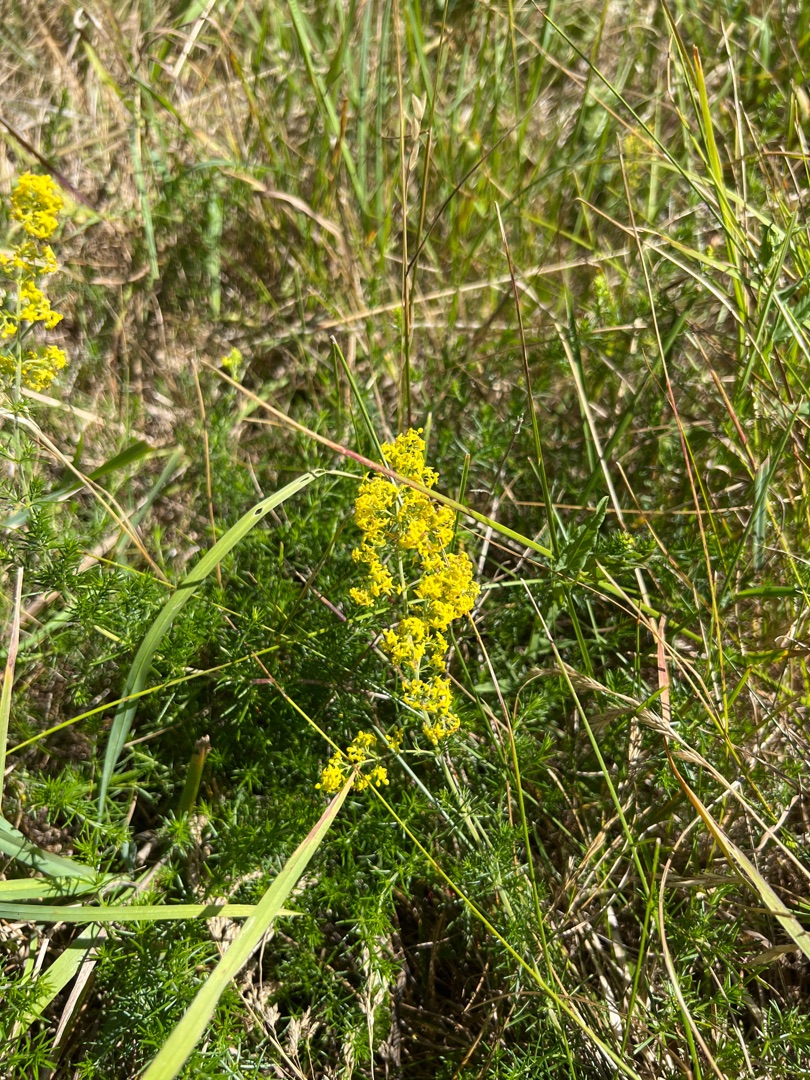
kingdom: Plantae
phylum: Tracheophyta
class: Magnoliopsida
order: Gentianales
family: Rubiaceae
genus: Galium
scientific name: Galium verum
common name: Gul snerre
